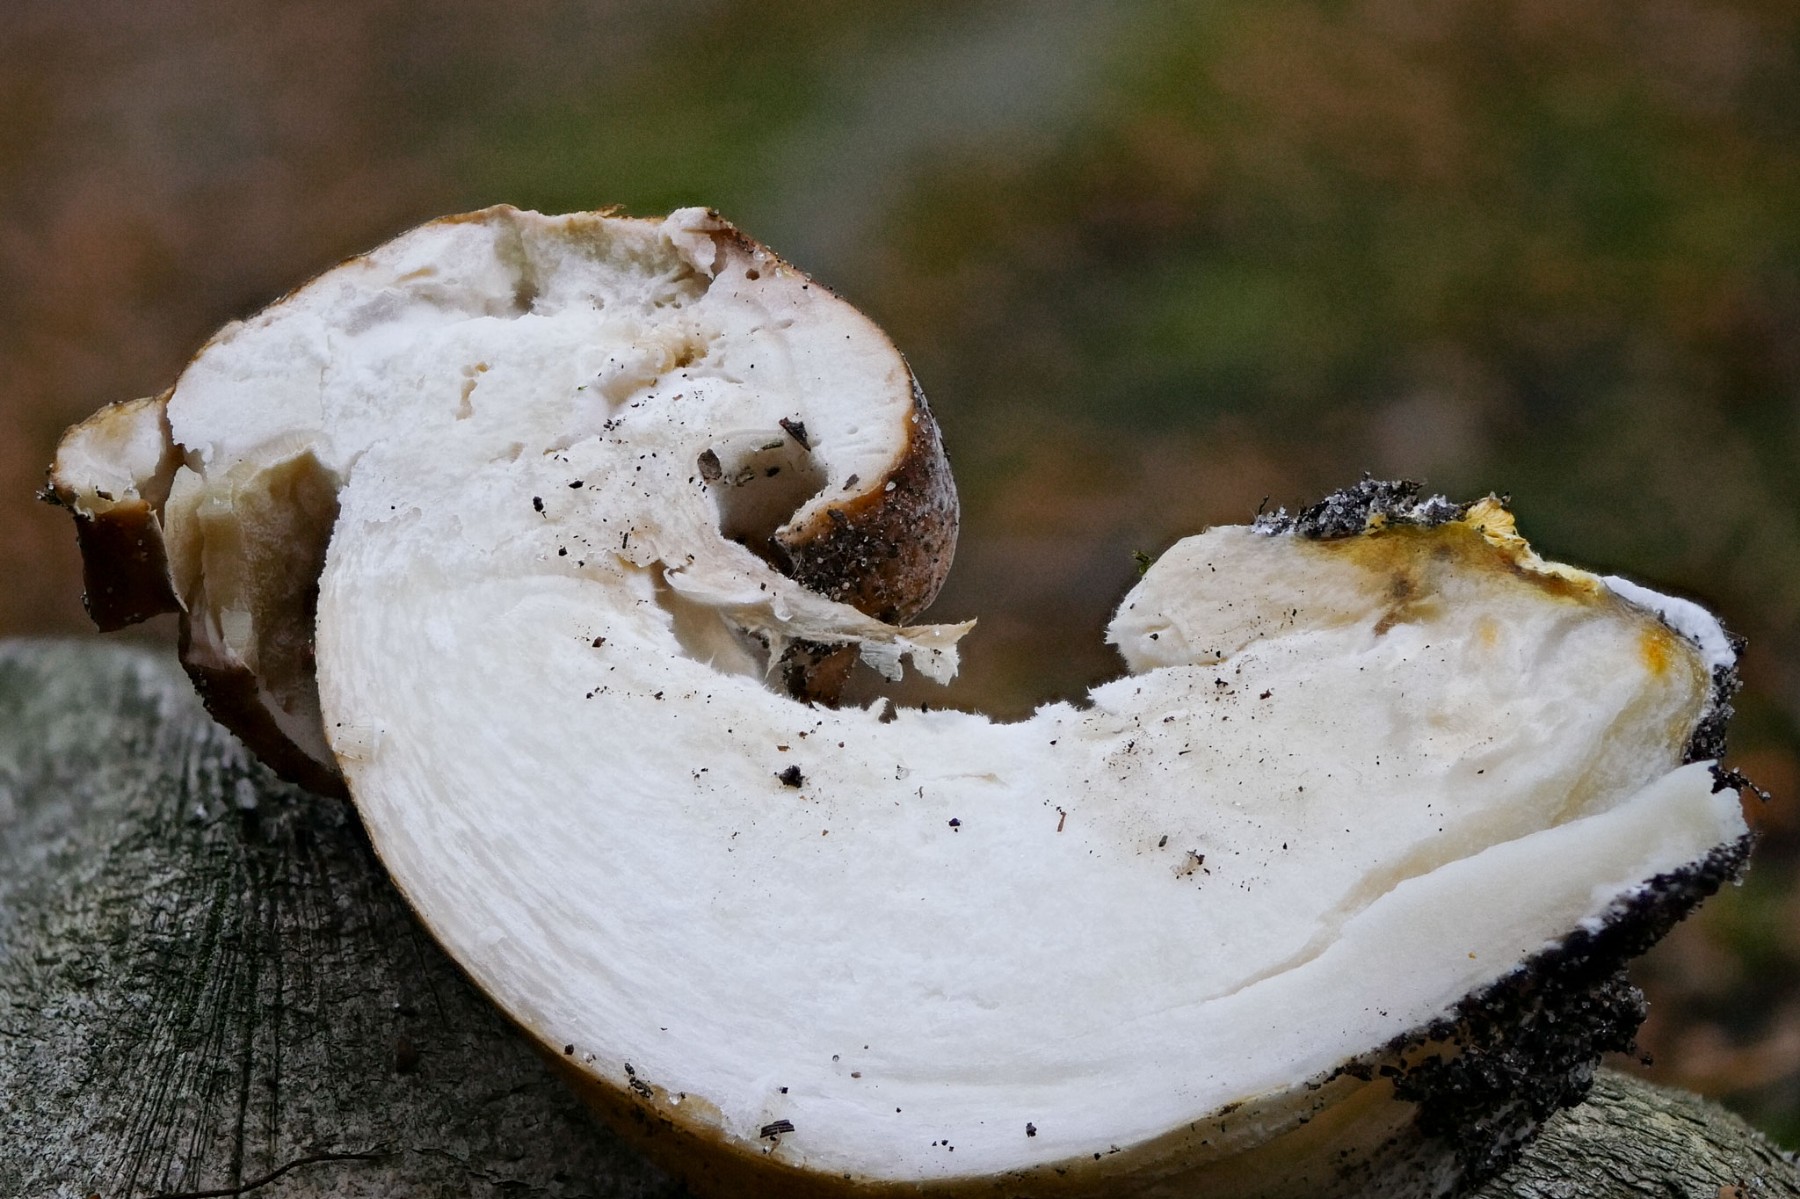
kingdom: Fungi
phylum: Basidiomycota
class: Agaricomycetes
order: Boletales
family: Boletaceae
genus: Boletus
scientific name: Boletus edulis
